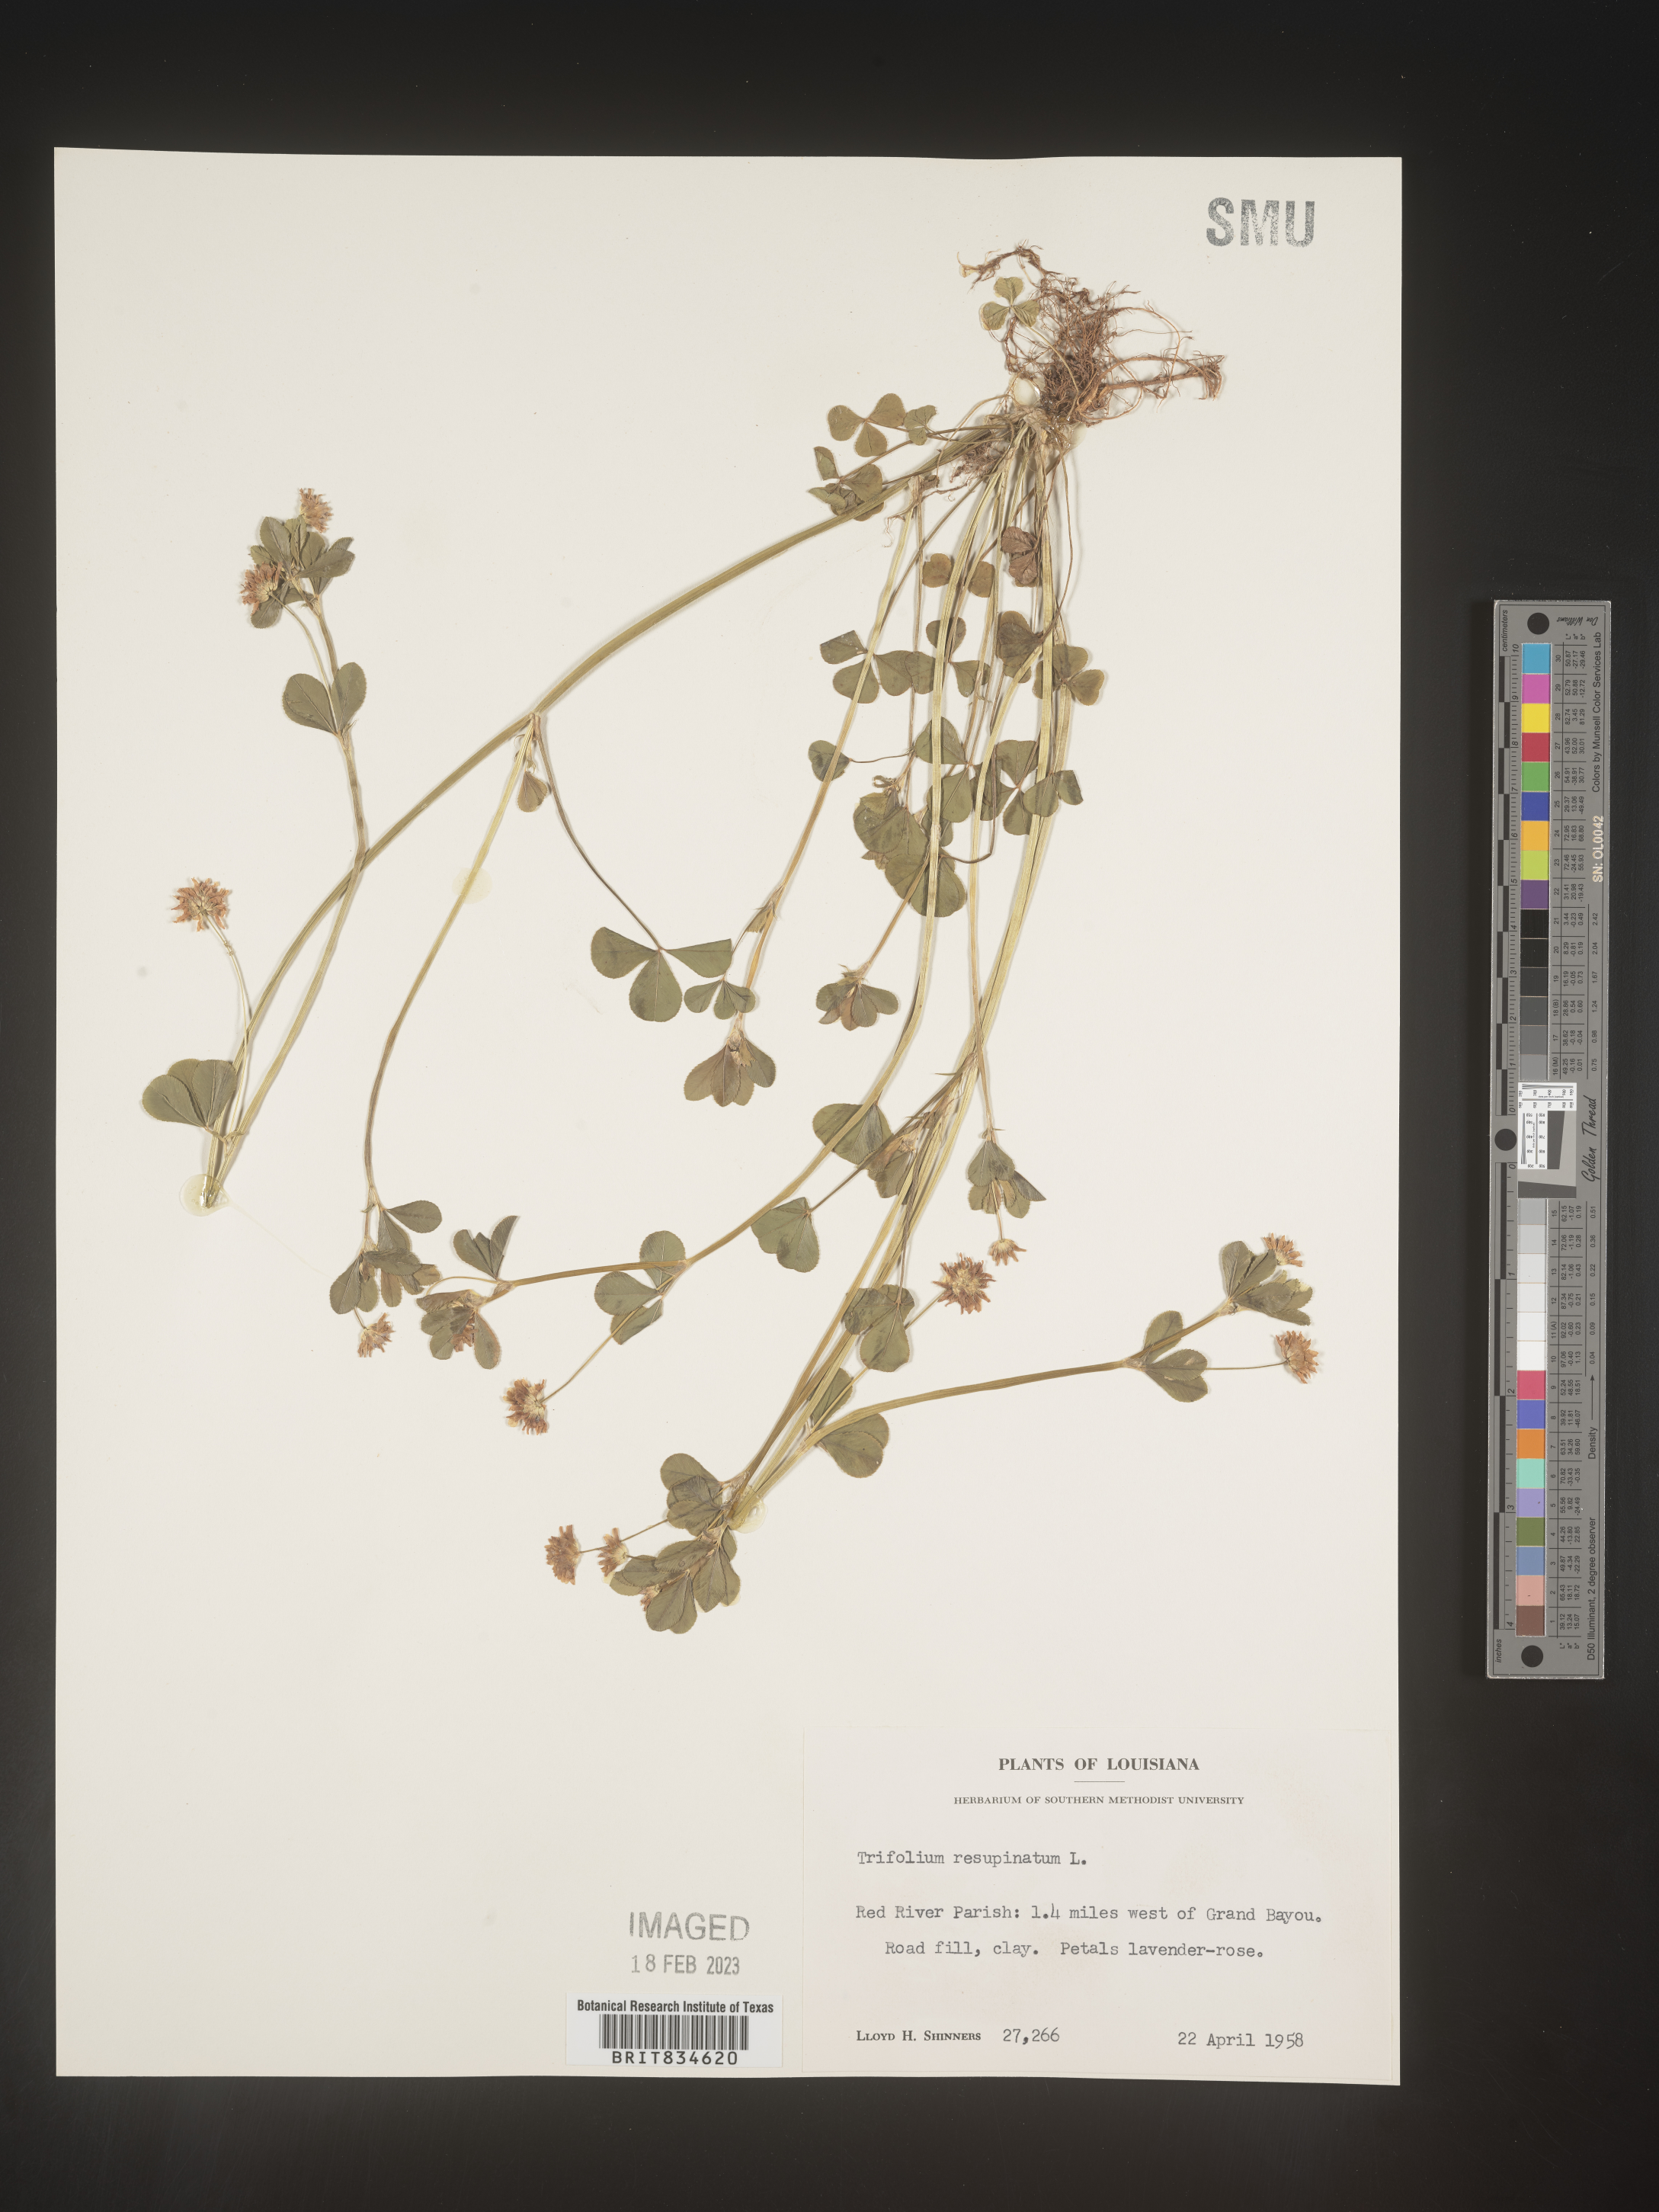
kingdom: Plantae
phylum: Tracheophyta
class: Magnoliopsida
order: Fabales
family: Fabaceae
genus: Trifolium
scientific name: Trifolium resupinatum
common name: Reversed clover
